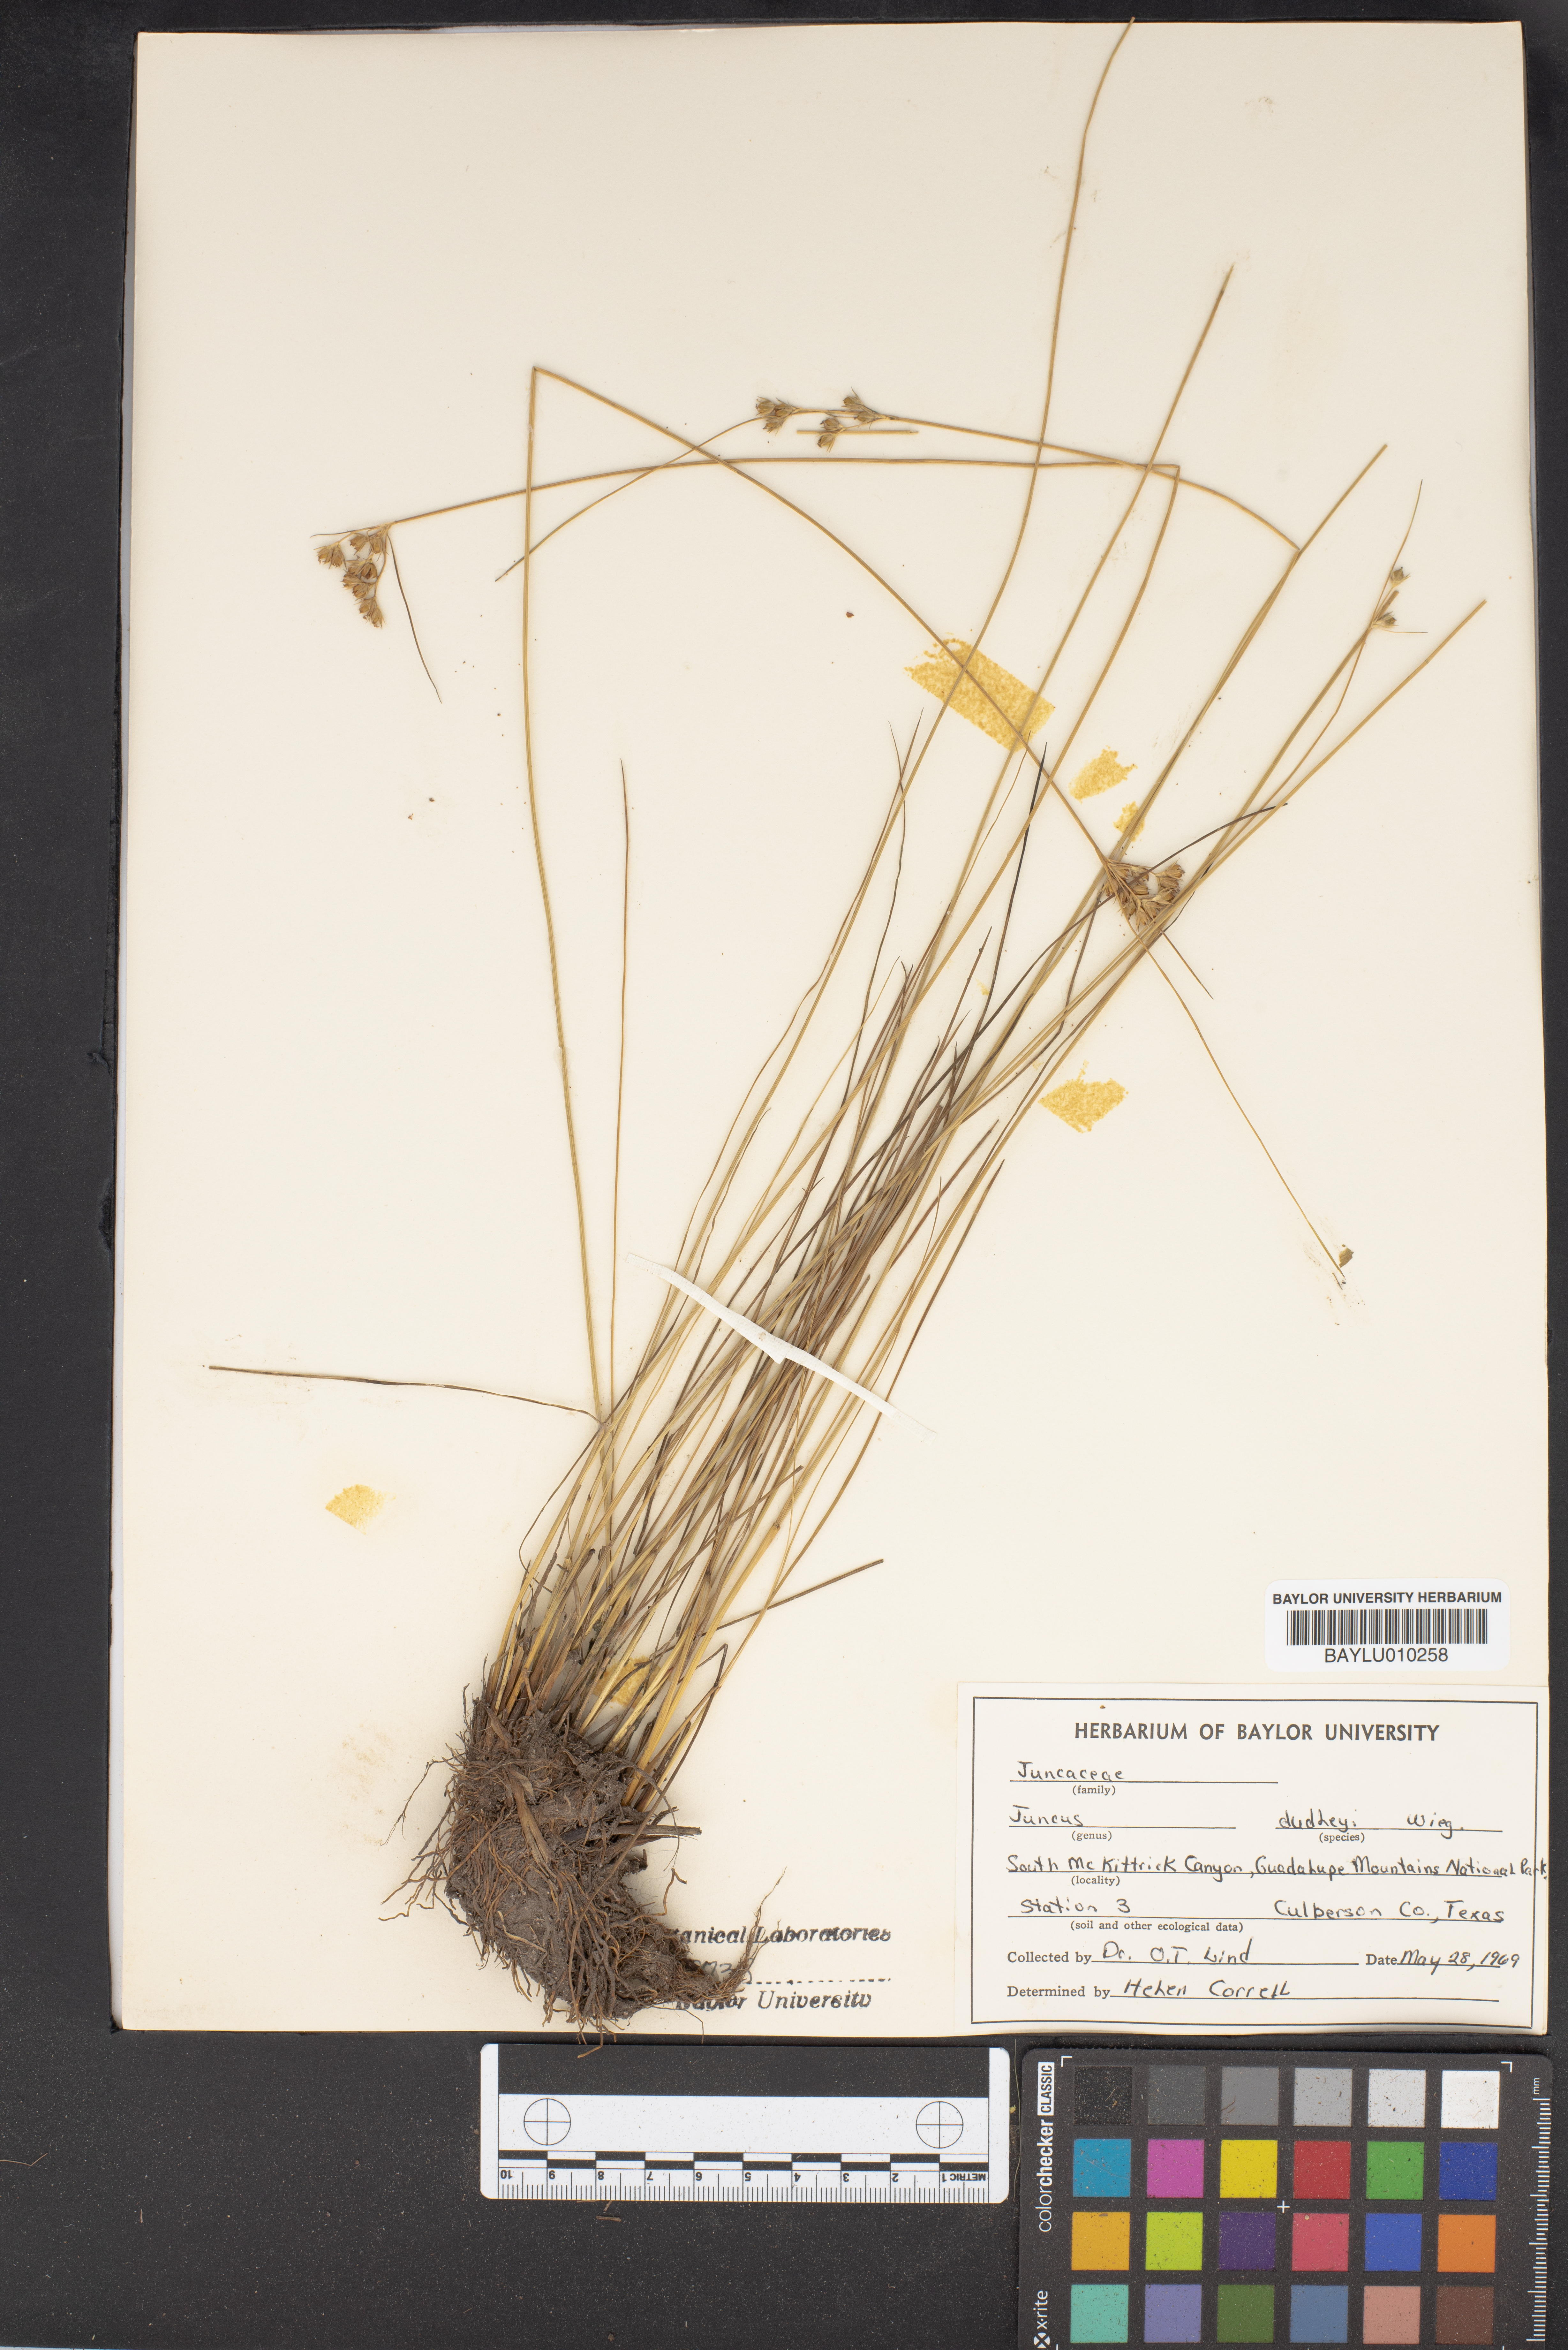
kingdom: Plantae
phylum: Tracheophyta
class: Liliopsida
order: Poales
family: Juncaceae
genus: Juncus
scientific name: Juncus dudleyi
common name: Dudley's rush
